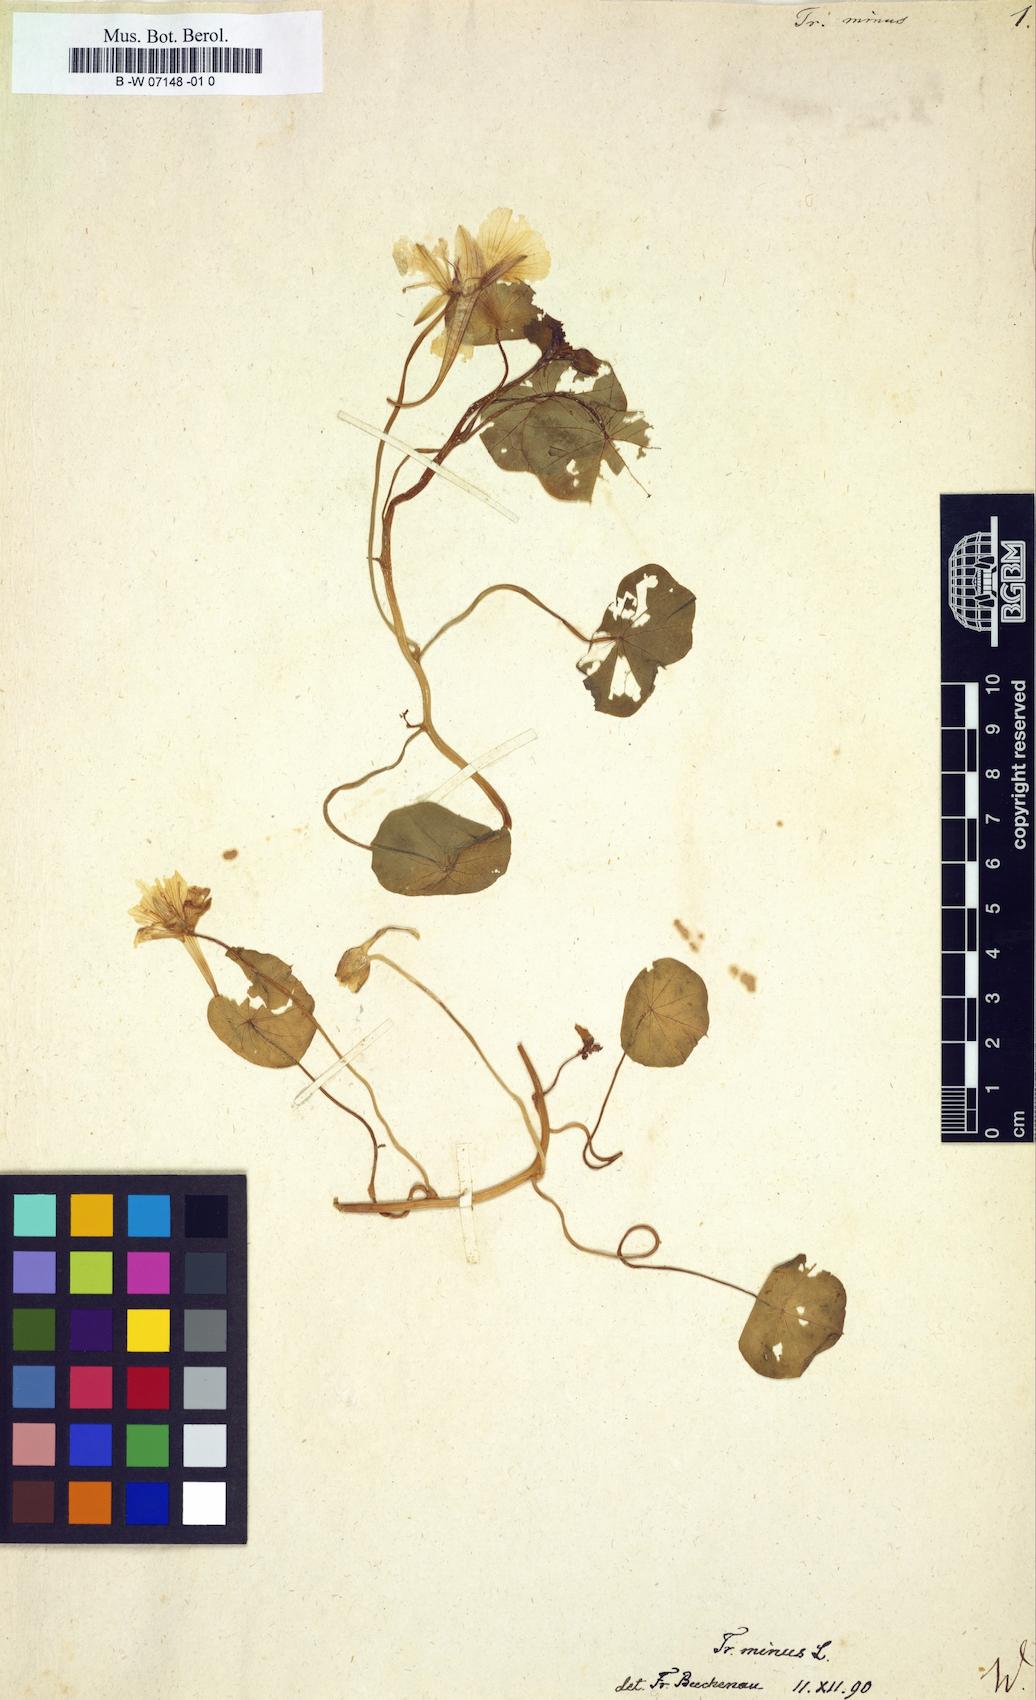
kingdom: Plantae
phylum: Tracheophyta
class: Magnoliopsida
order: Brassicales
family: Tropaeolaceae
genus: Tropaeolum
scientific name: Tropaeolum minus
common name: Dwarf nasturtium
